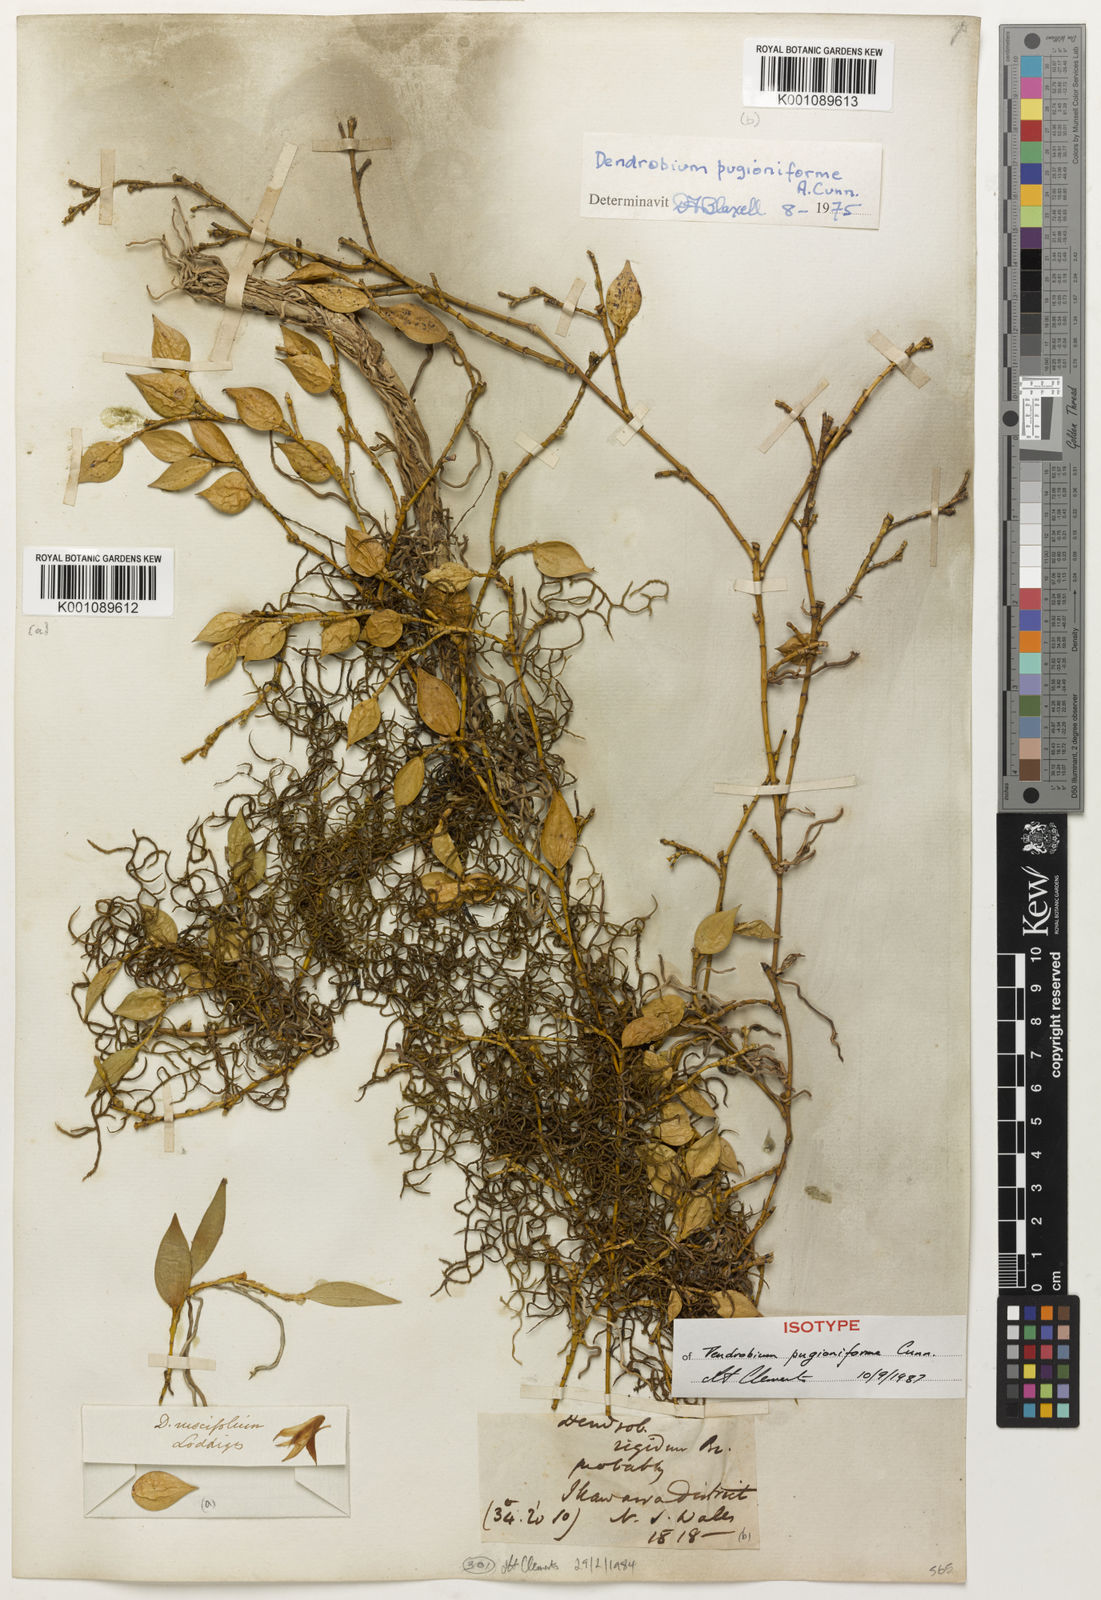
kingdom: Plantae
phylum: Tracheophyta
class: Liliopsida
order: Asparagales
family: Orchidaceae
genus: Pleurothallis
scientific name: Pleurothallis ruscifolia
